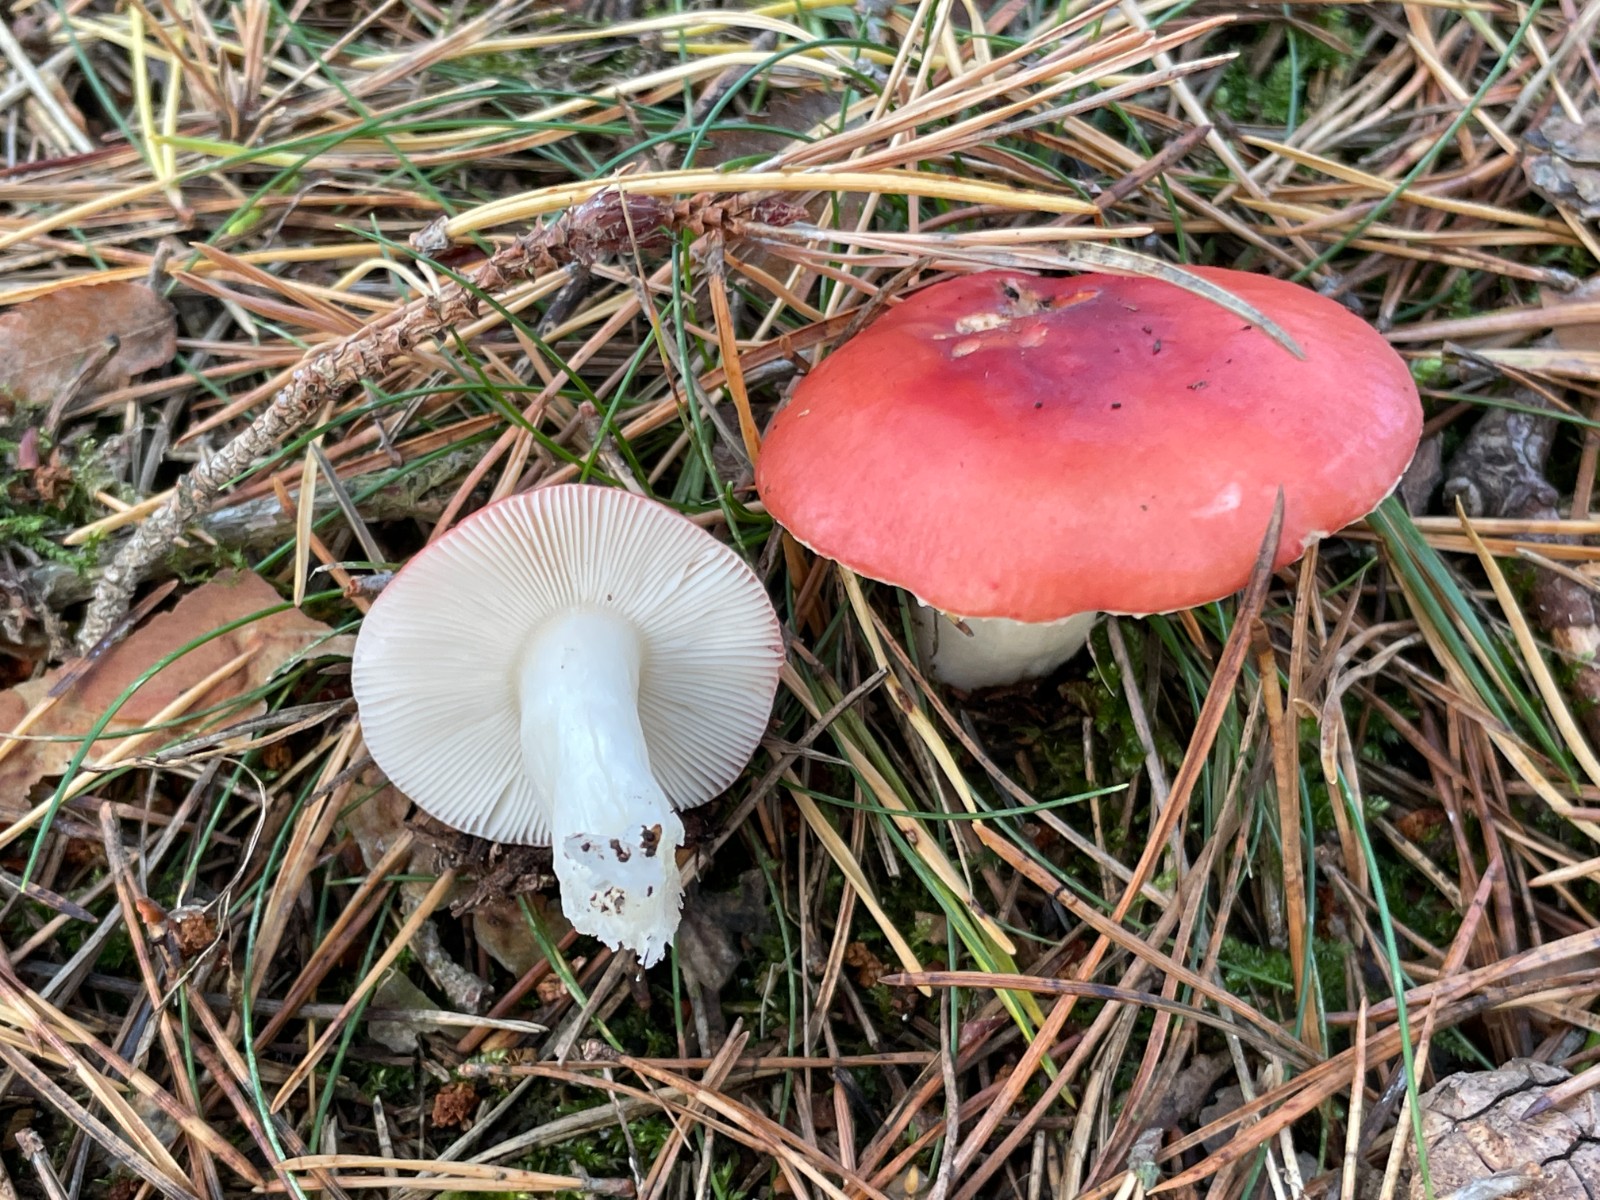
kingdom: Fungi
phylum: Basidiomycota
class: Agaricomycetes
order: Russulales
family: Russulaceae
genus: Russula
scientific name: Russula emetica
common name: stor gift-skørhat
